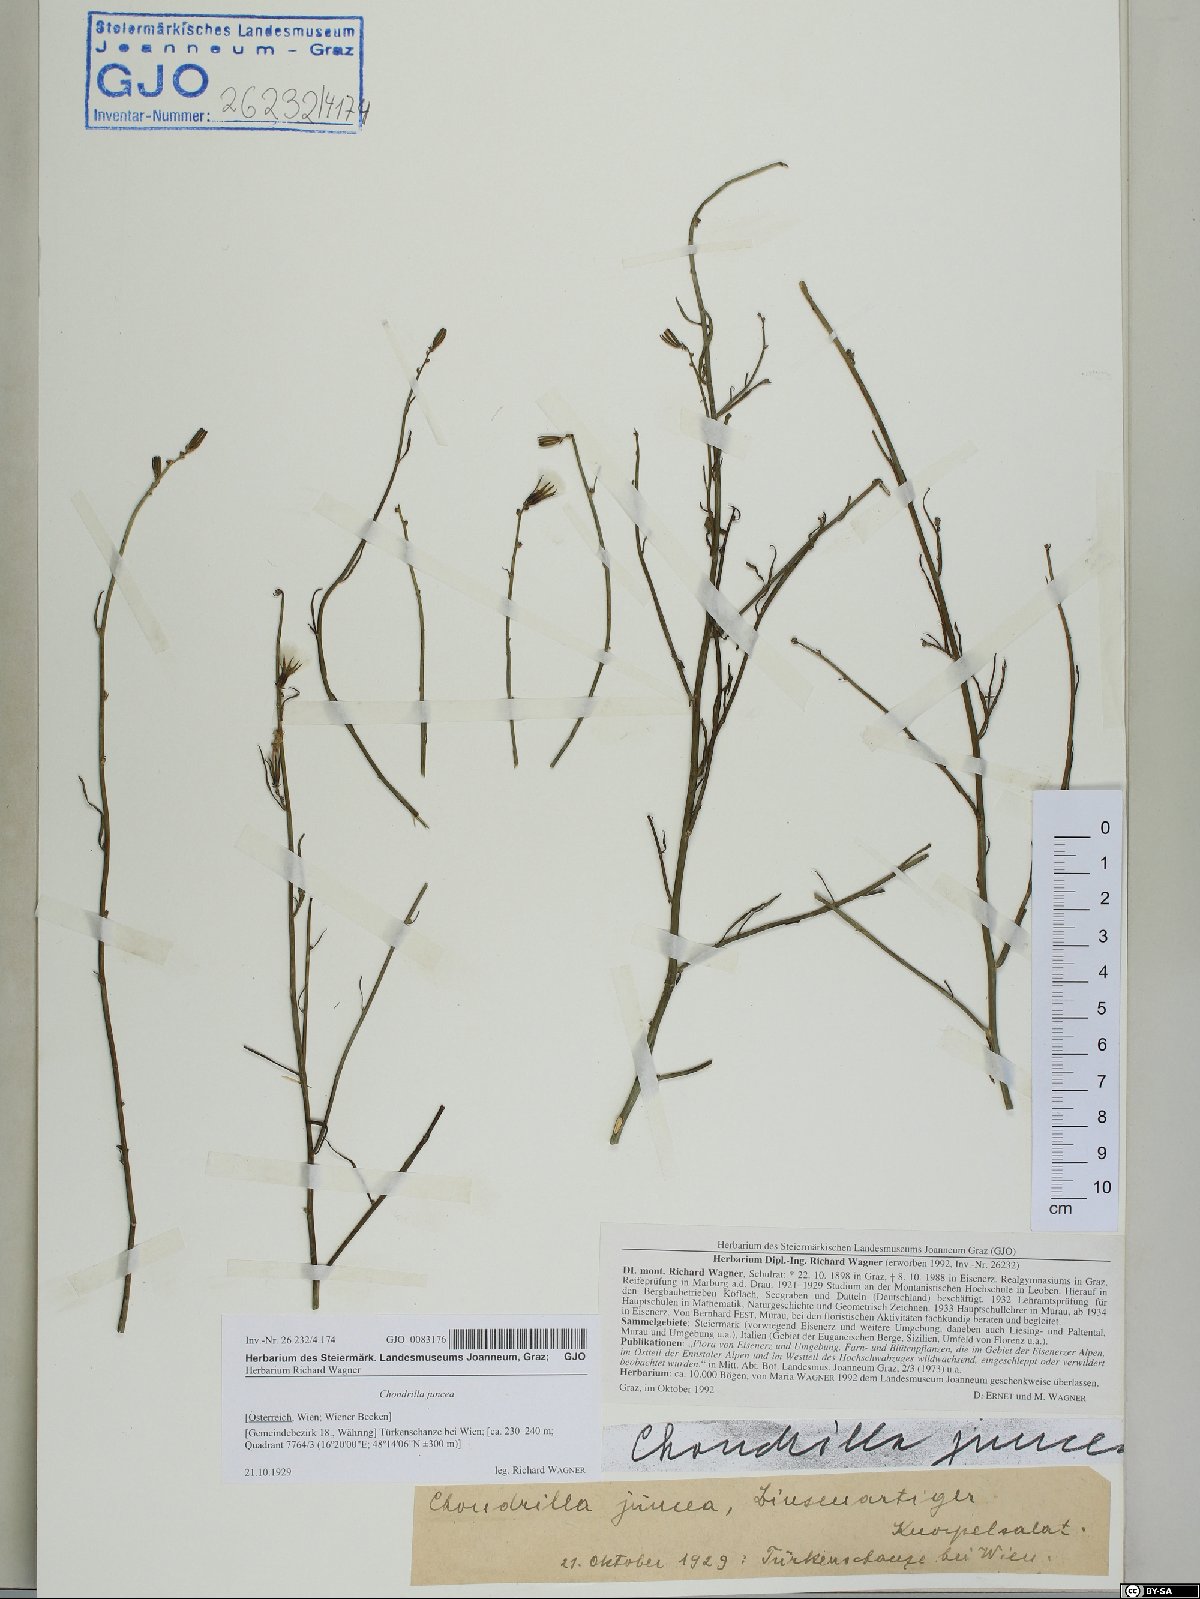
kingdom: Plantae
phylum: Tracheophyta
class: Magnoliopsida
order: Asterales
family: Asteraceae
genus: Chondrilla
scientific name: Chondrilla juncea
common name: Skeleton weed
